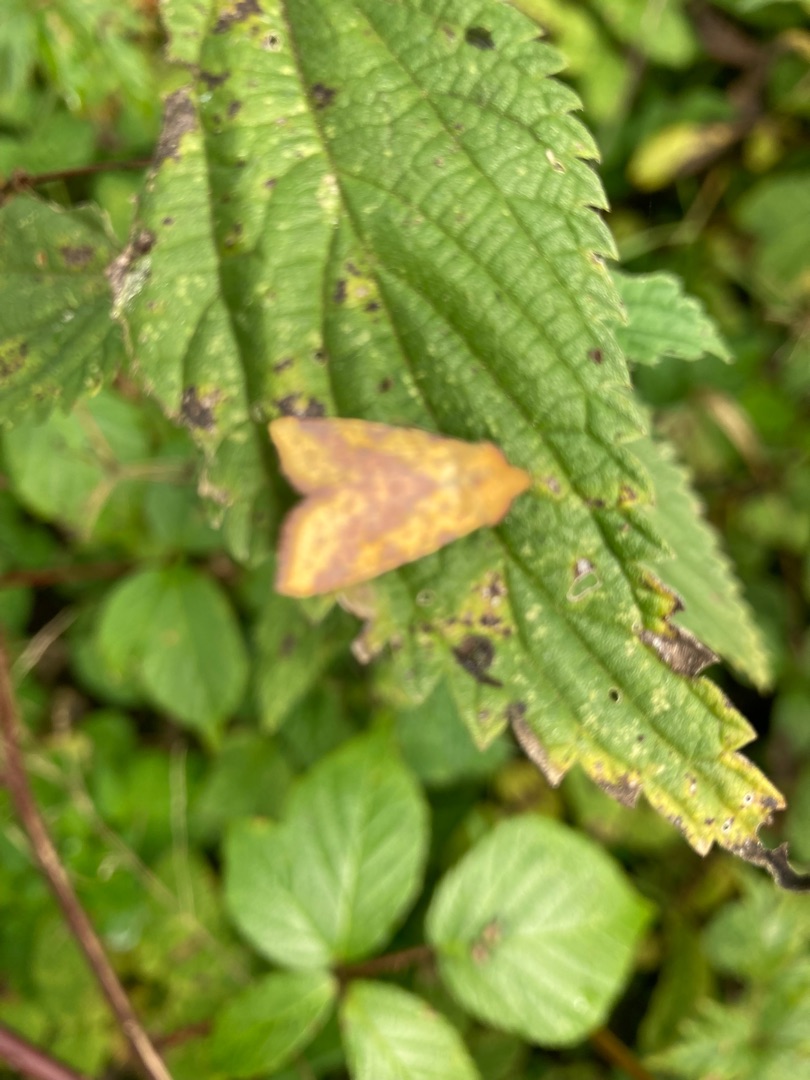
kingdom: Animalia
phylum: Arthropoda
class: Insecta
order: Lepidoptera
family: Noctuidae
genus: Xanthia
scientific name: Xanthia togata
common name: Toga-septemberugle
